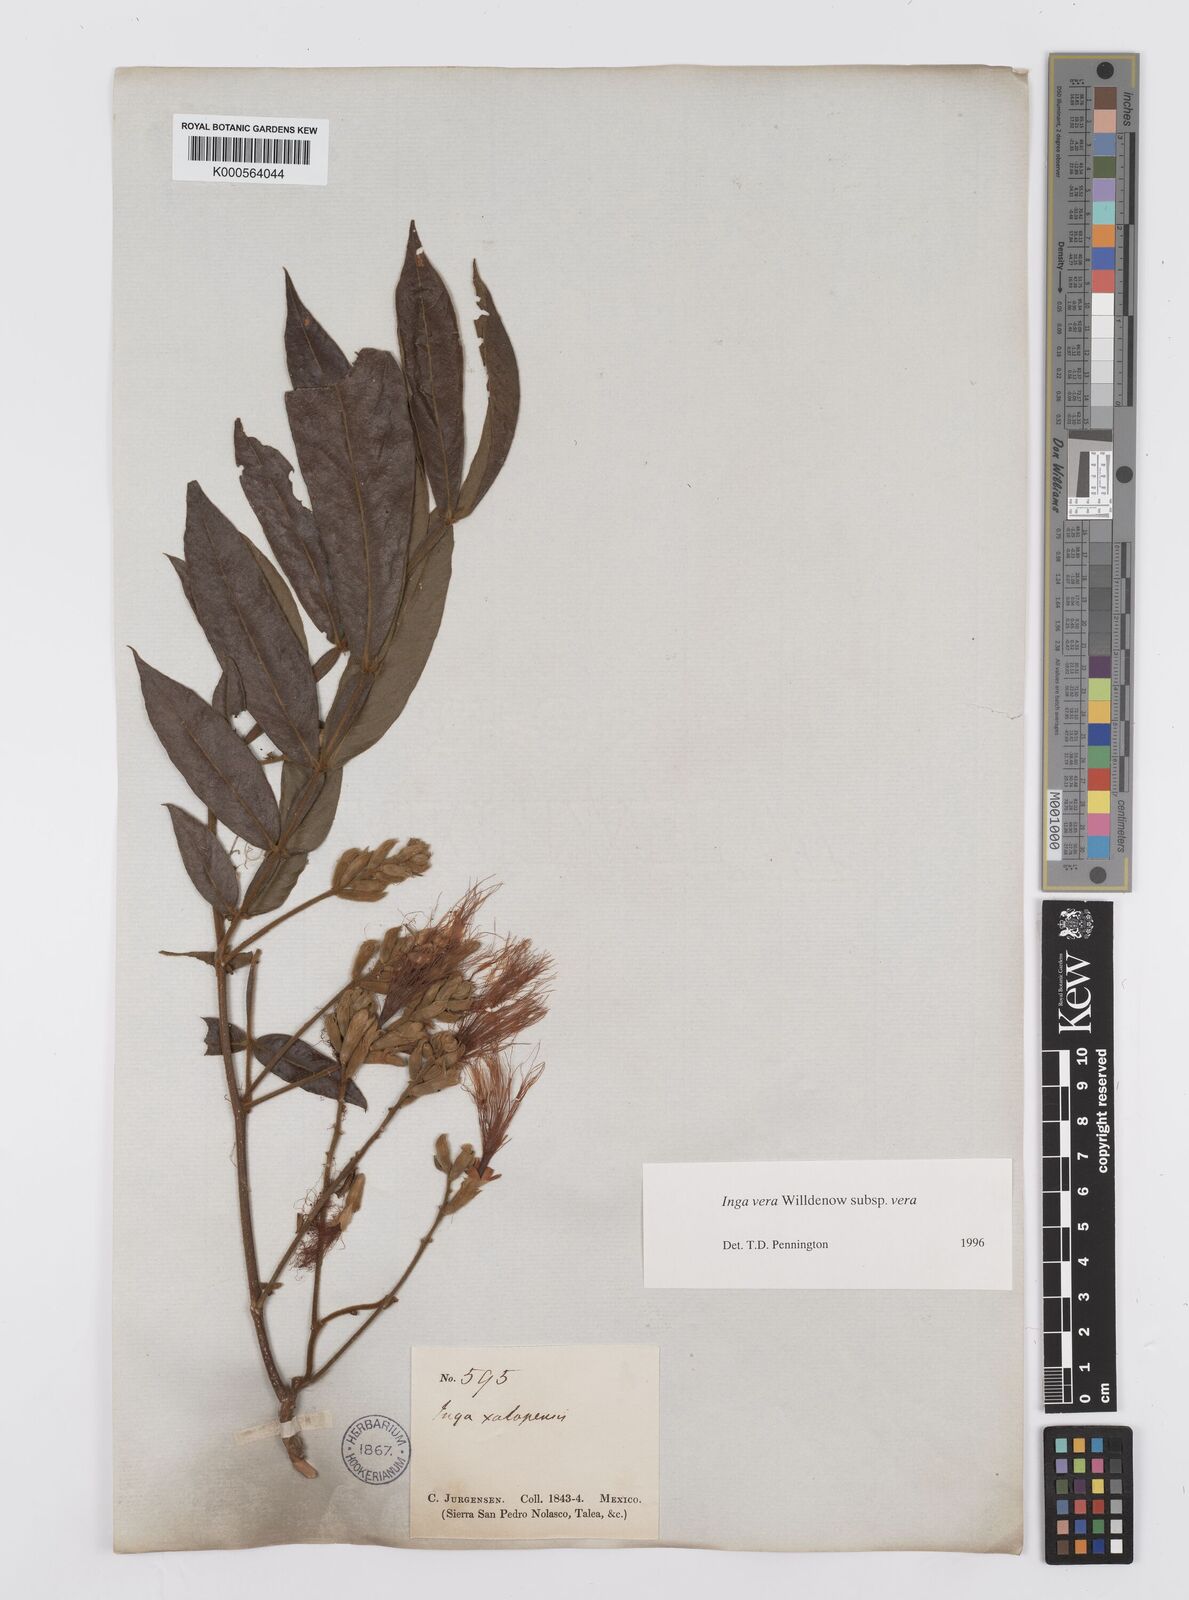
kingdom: Plantae
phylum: Tracheophyta
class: Magnoliopsida
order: Fabales
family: Fabaceae
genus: Inga
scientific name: Inga vera
